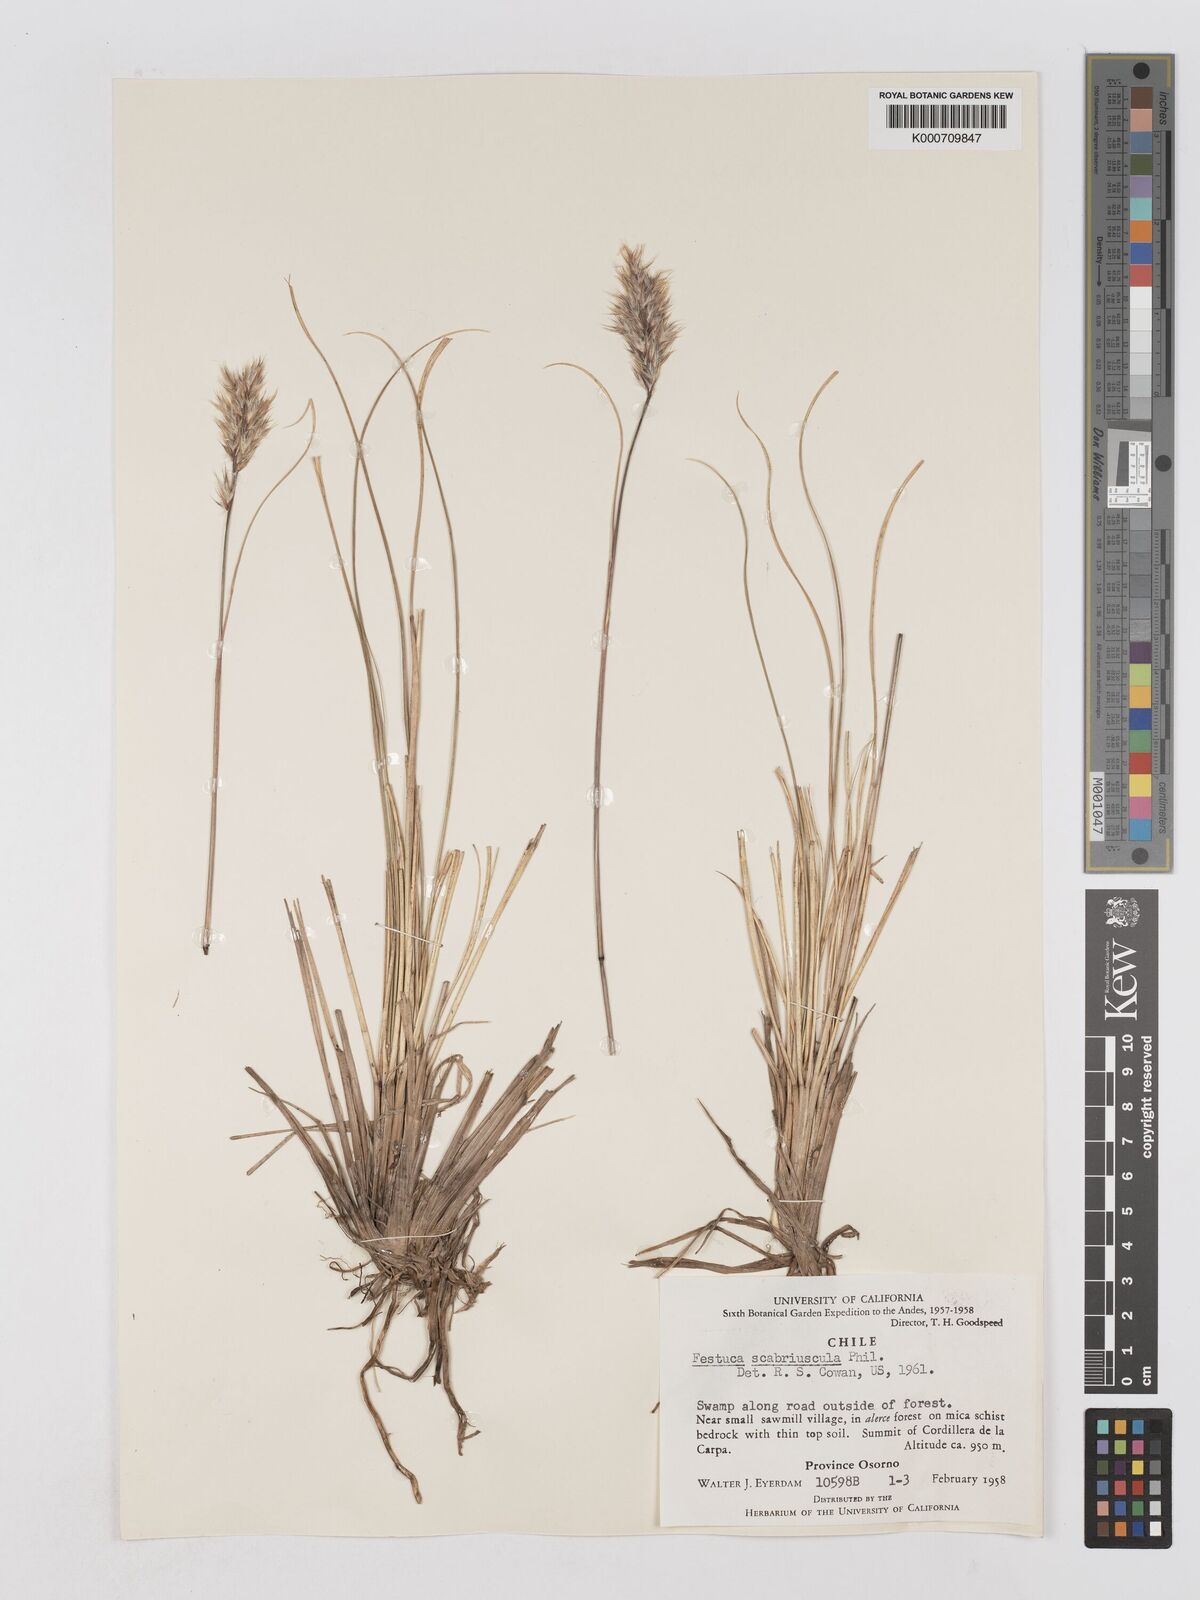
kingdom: Plantae
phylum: Tracheophyta
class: Liliopsida
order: Poales
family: Poaceae
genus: Cortaderia
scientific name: Cortaderia
